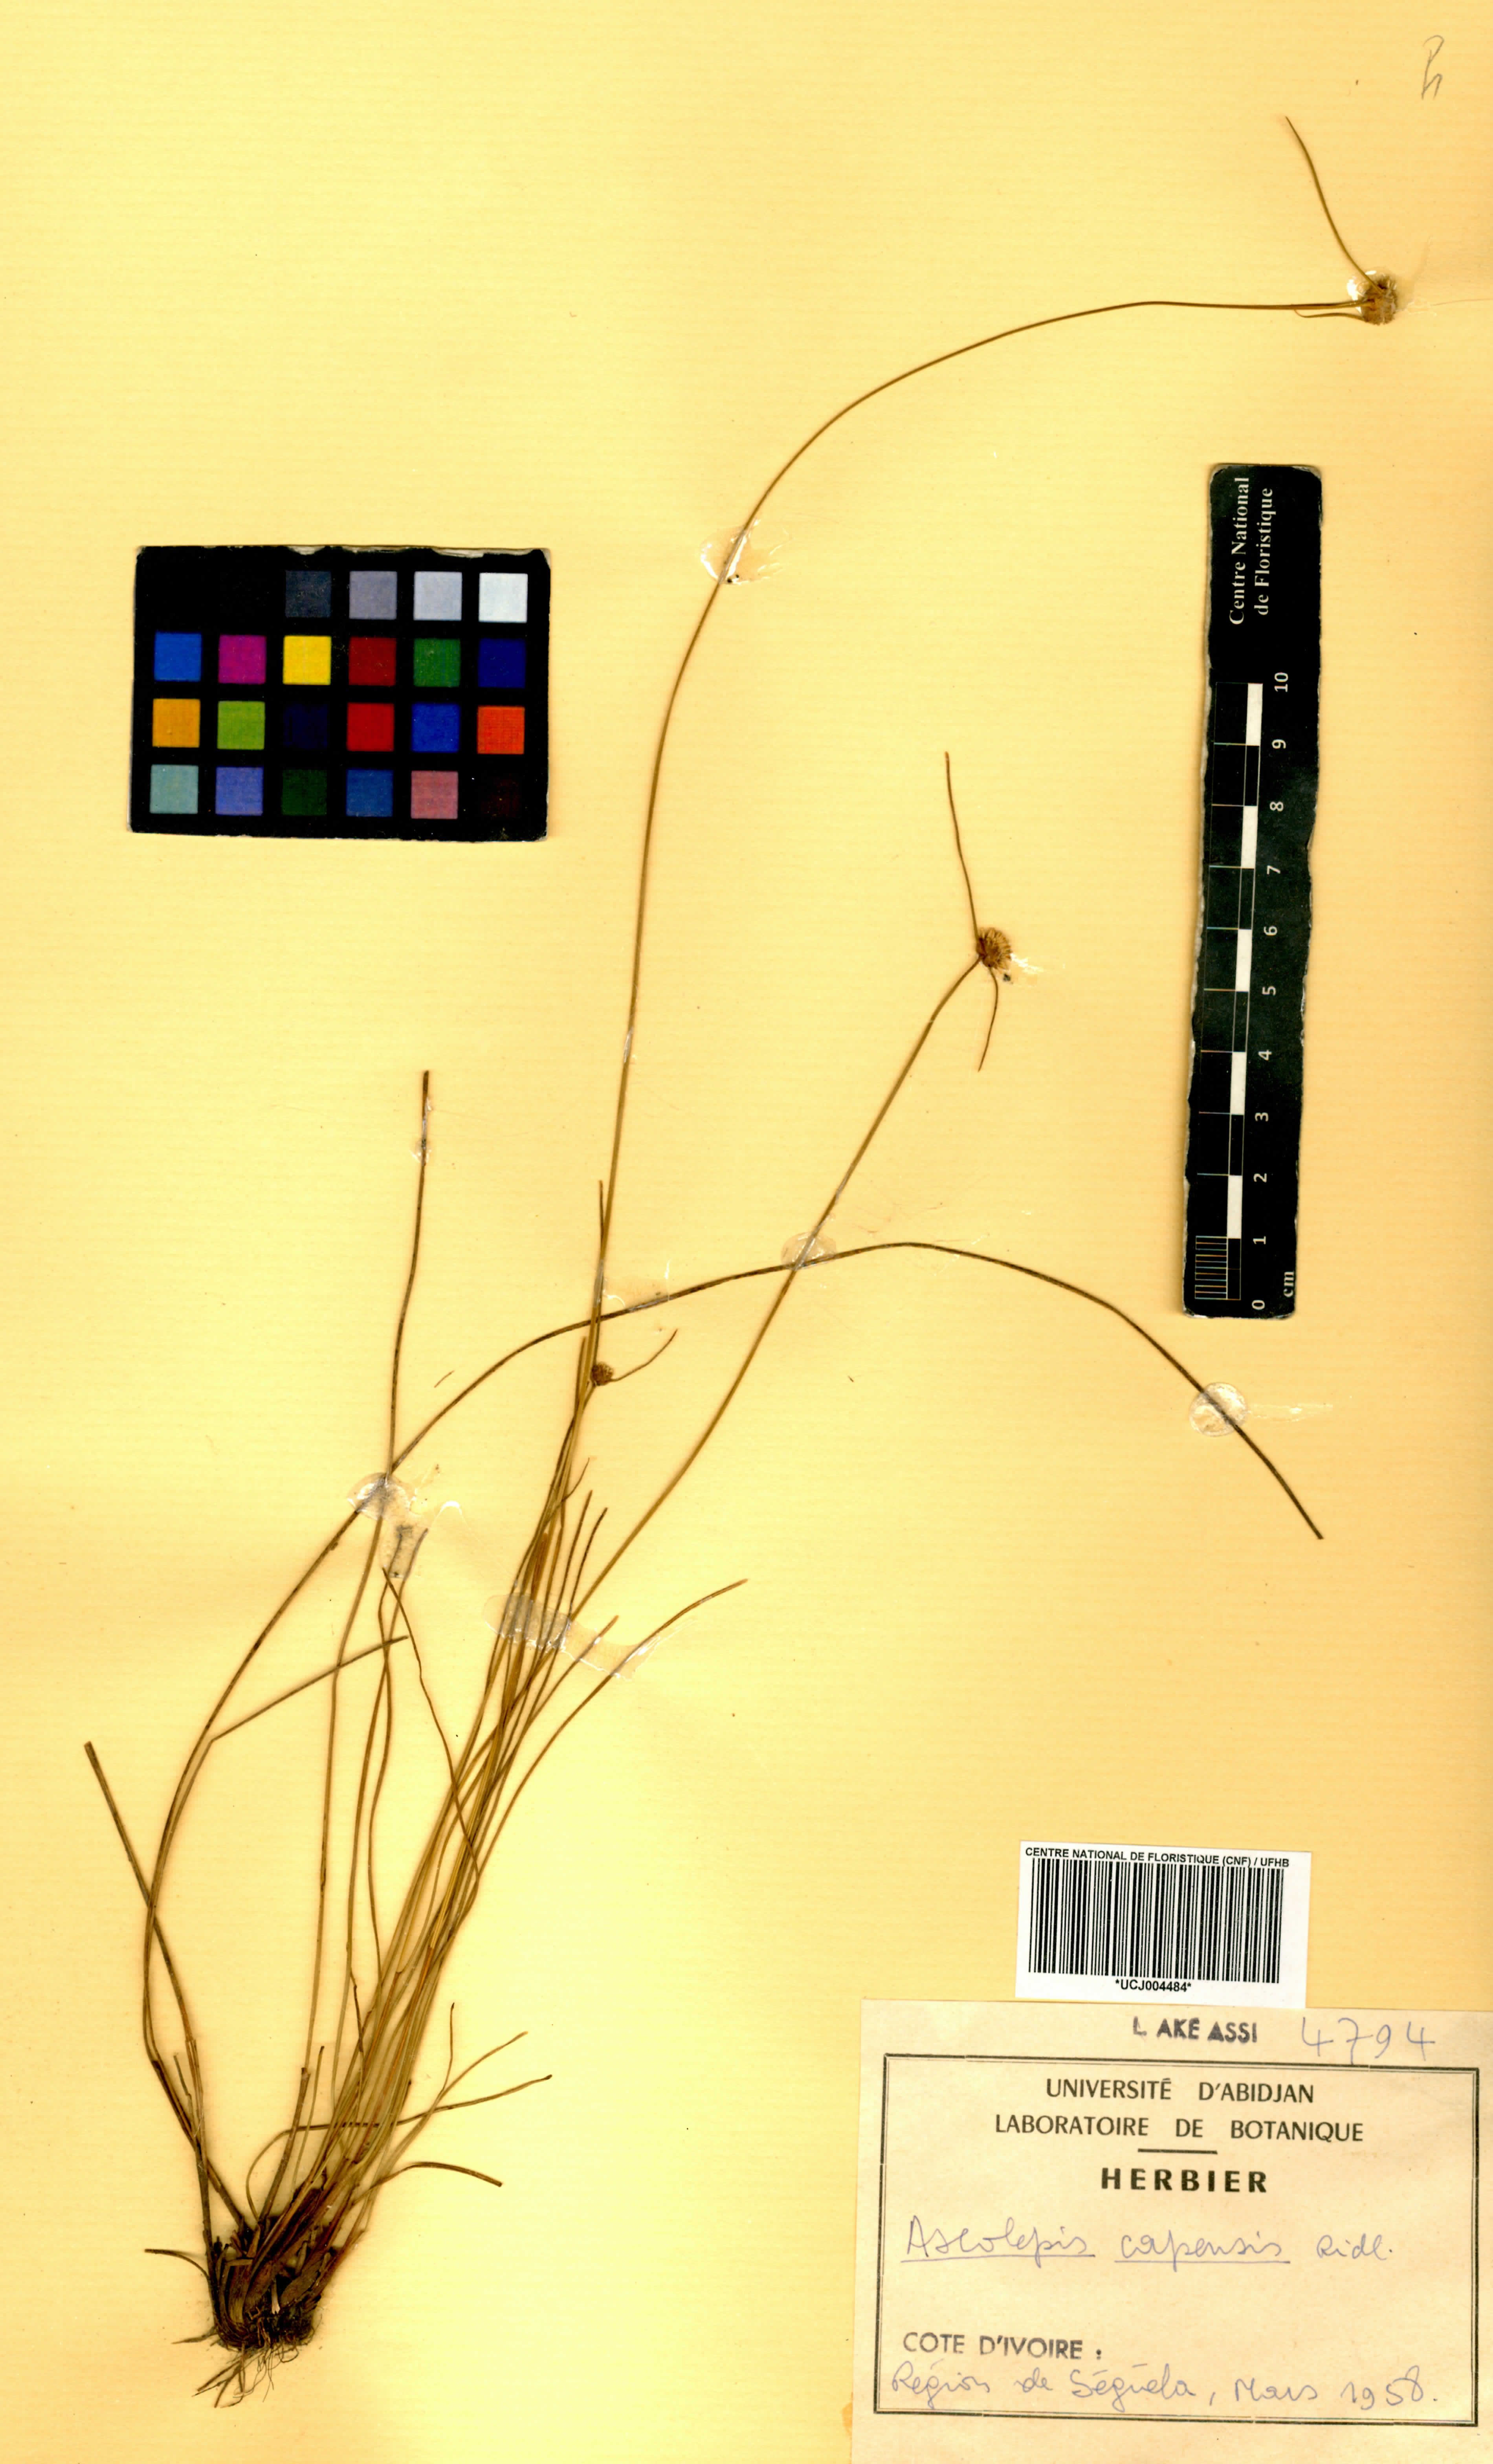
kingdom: Plantae
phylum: Tracheophyta
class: Liliopsida
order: Poales
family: Cyperaceae
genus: Cyperus
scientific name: Cyperus ascocapensis
